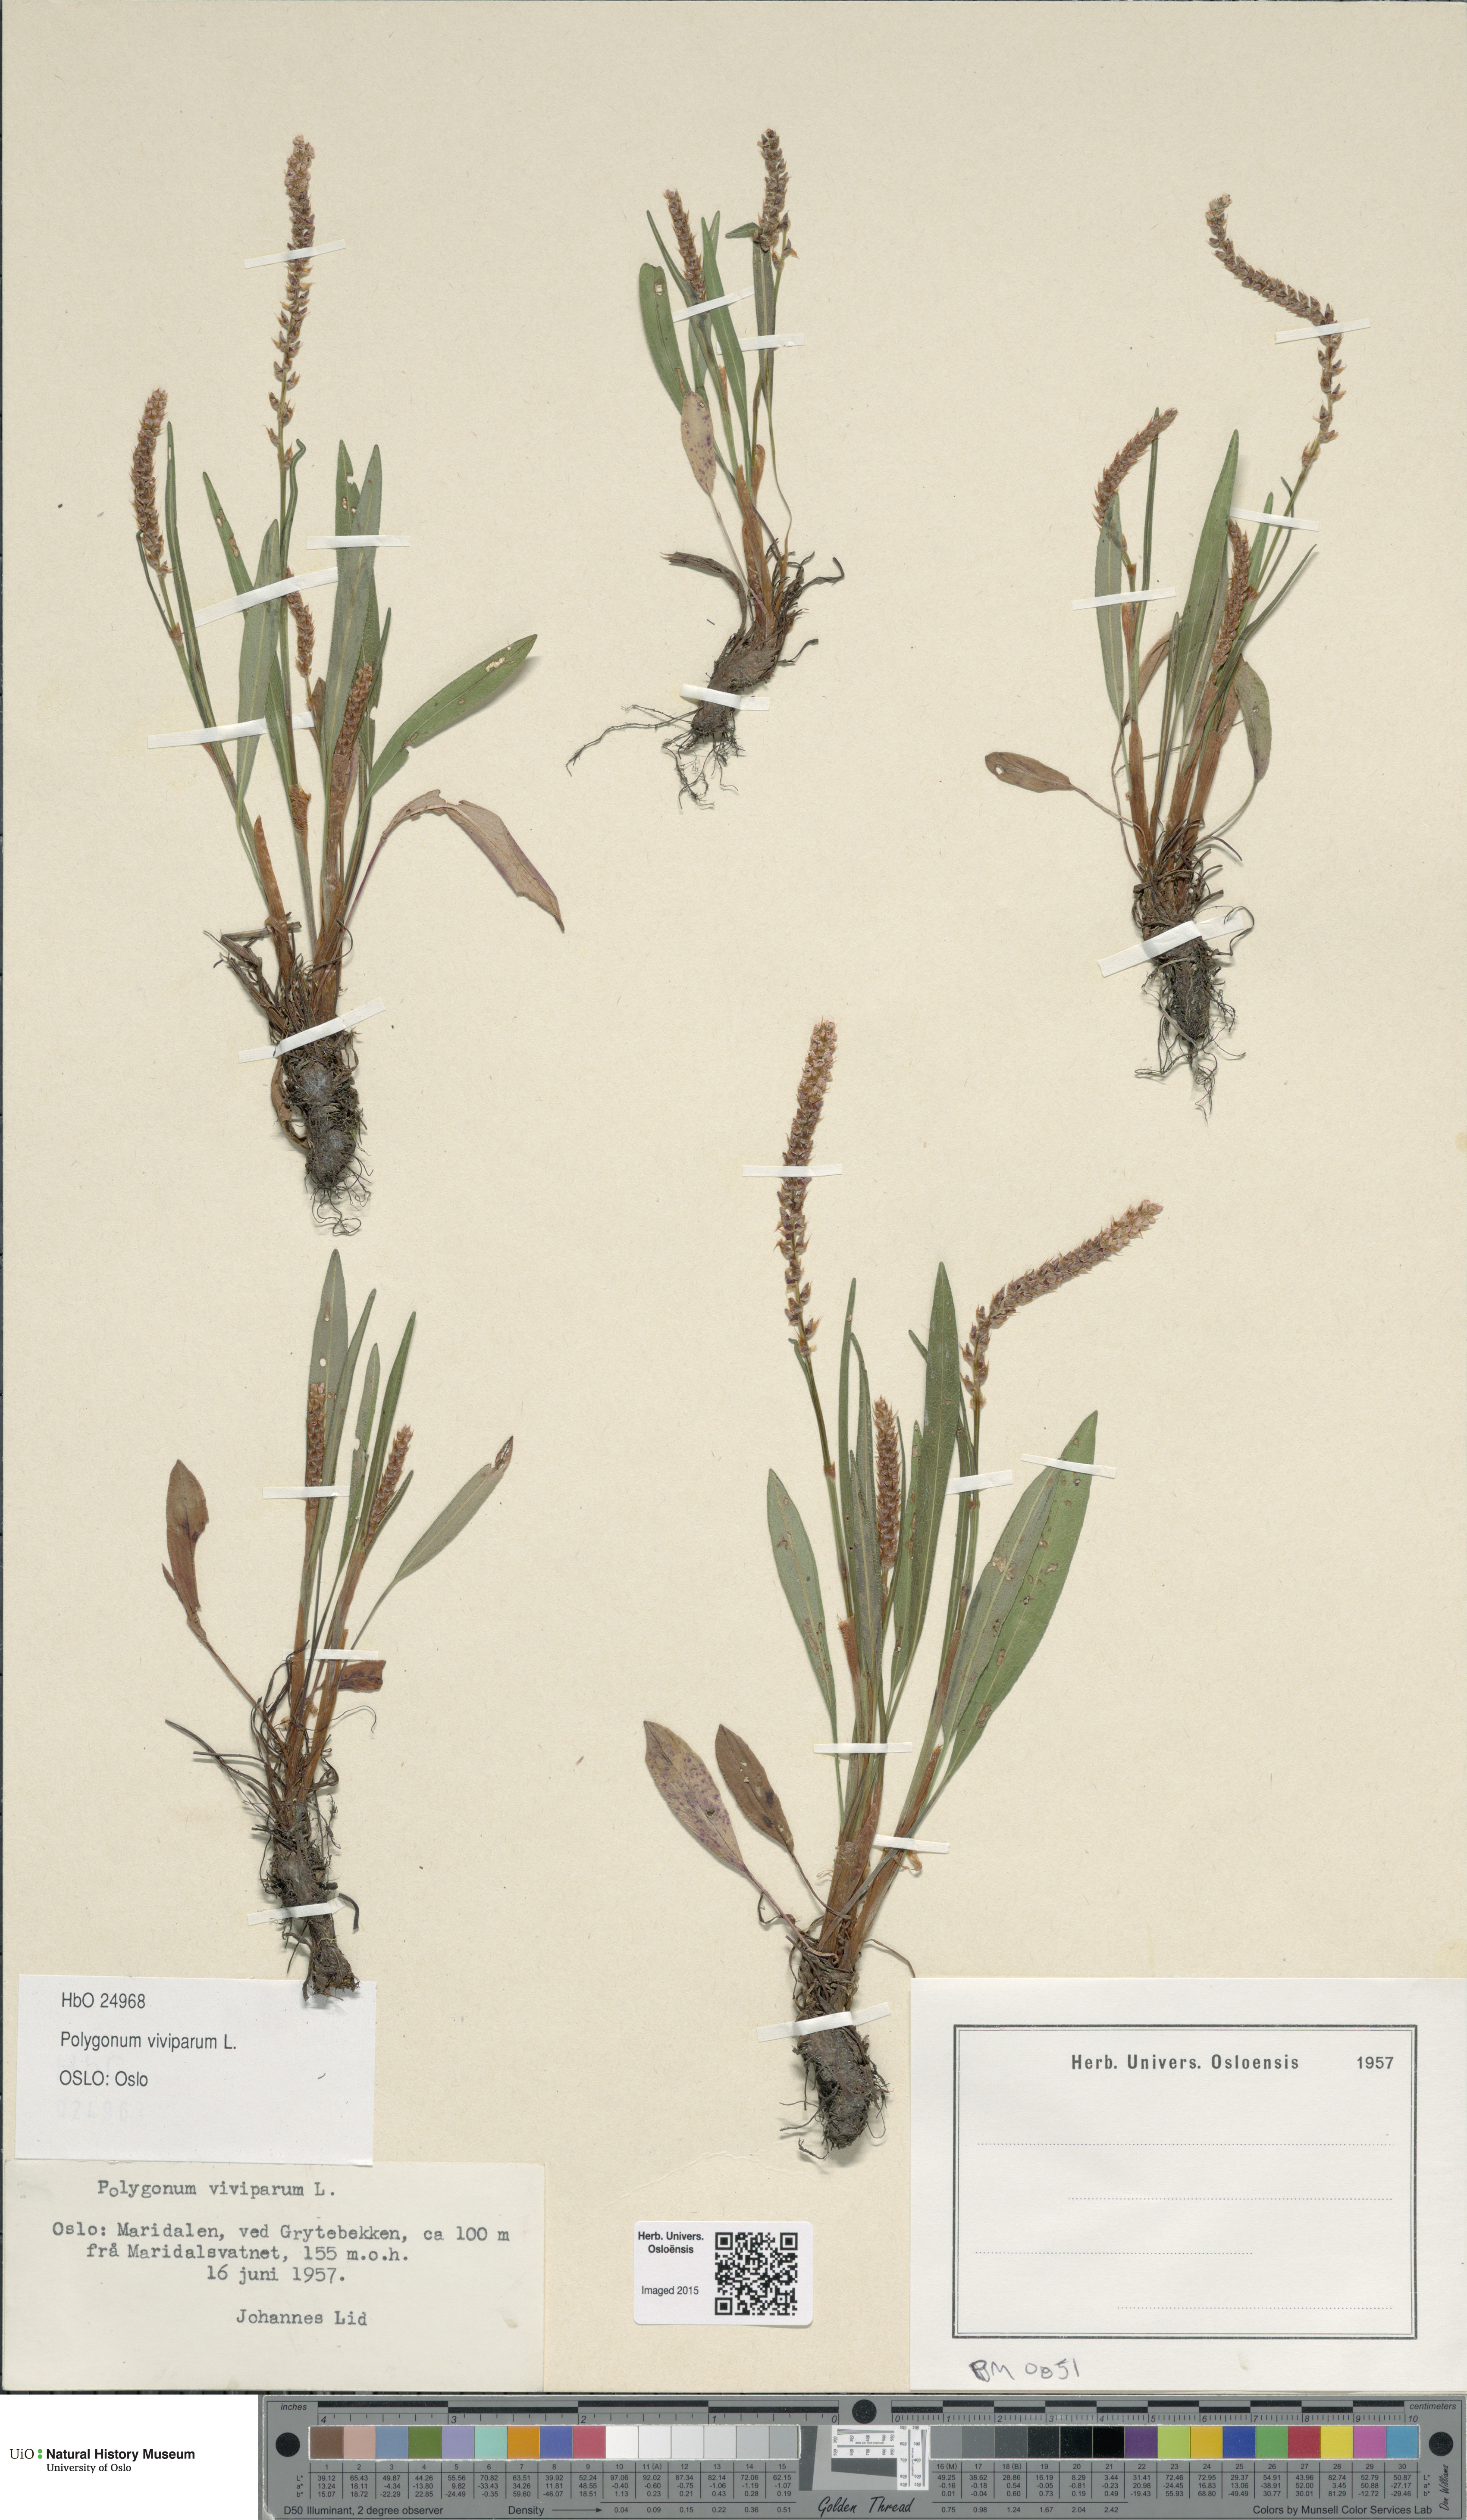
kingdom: Plantae
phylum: Tracheophyta
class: Magnoliopsida
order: Caryophyllales
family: Polygonaceae
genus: Bistorta
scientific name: Bistorta vivipara
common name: Alpine bistort
